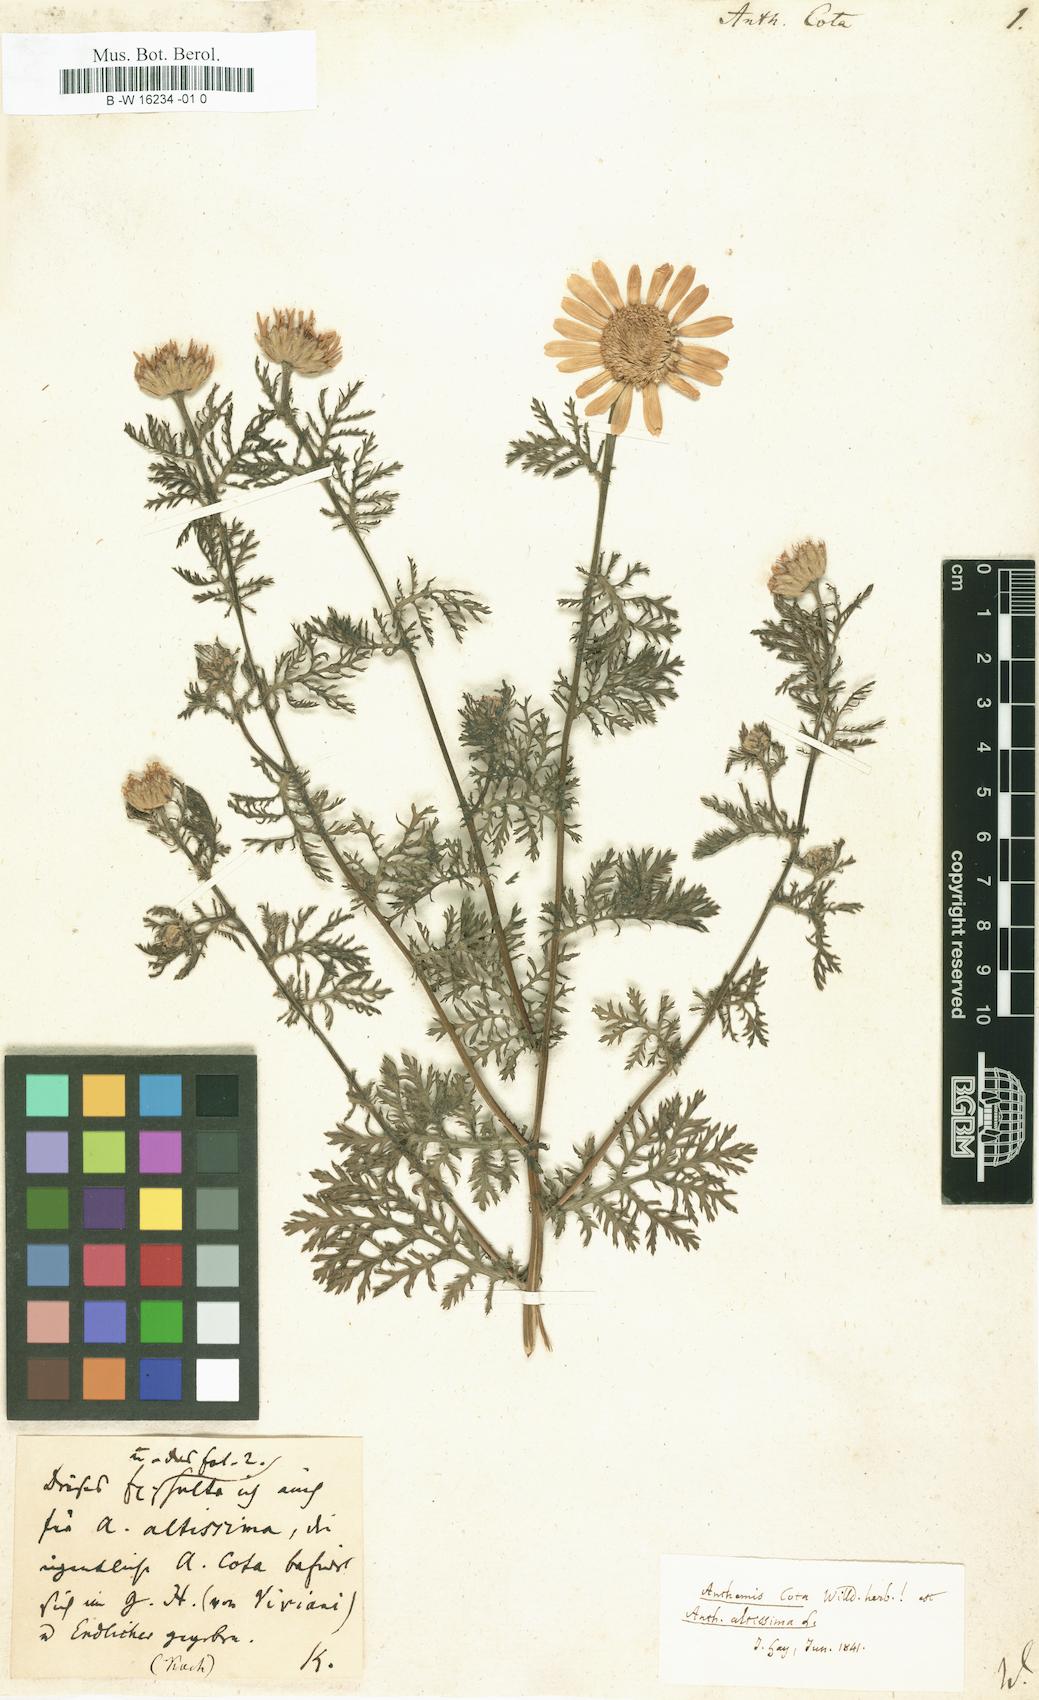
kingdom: Plantae
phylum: Tracheophyta
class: Magnoliopsida
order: Asterales
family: Asteraceae
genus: Cota
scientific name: Cota altissima
